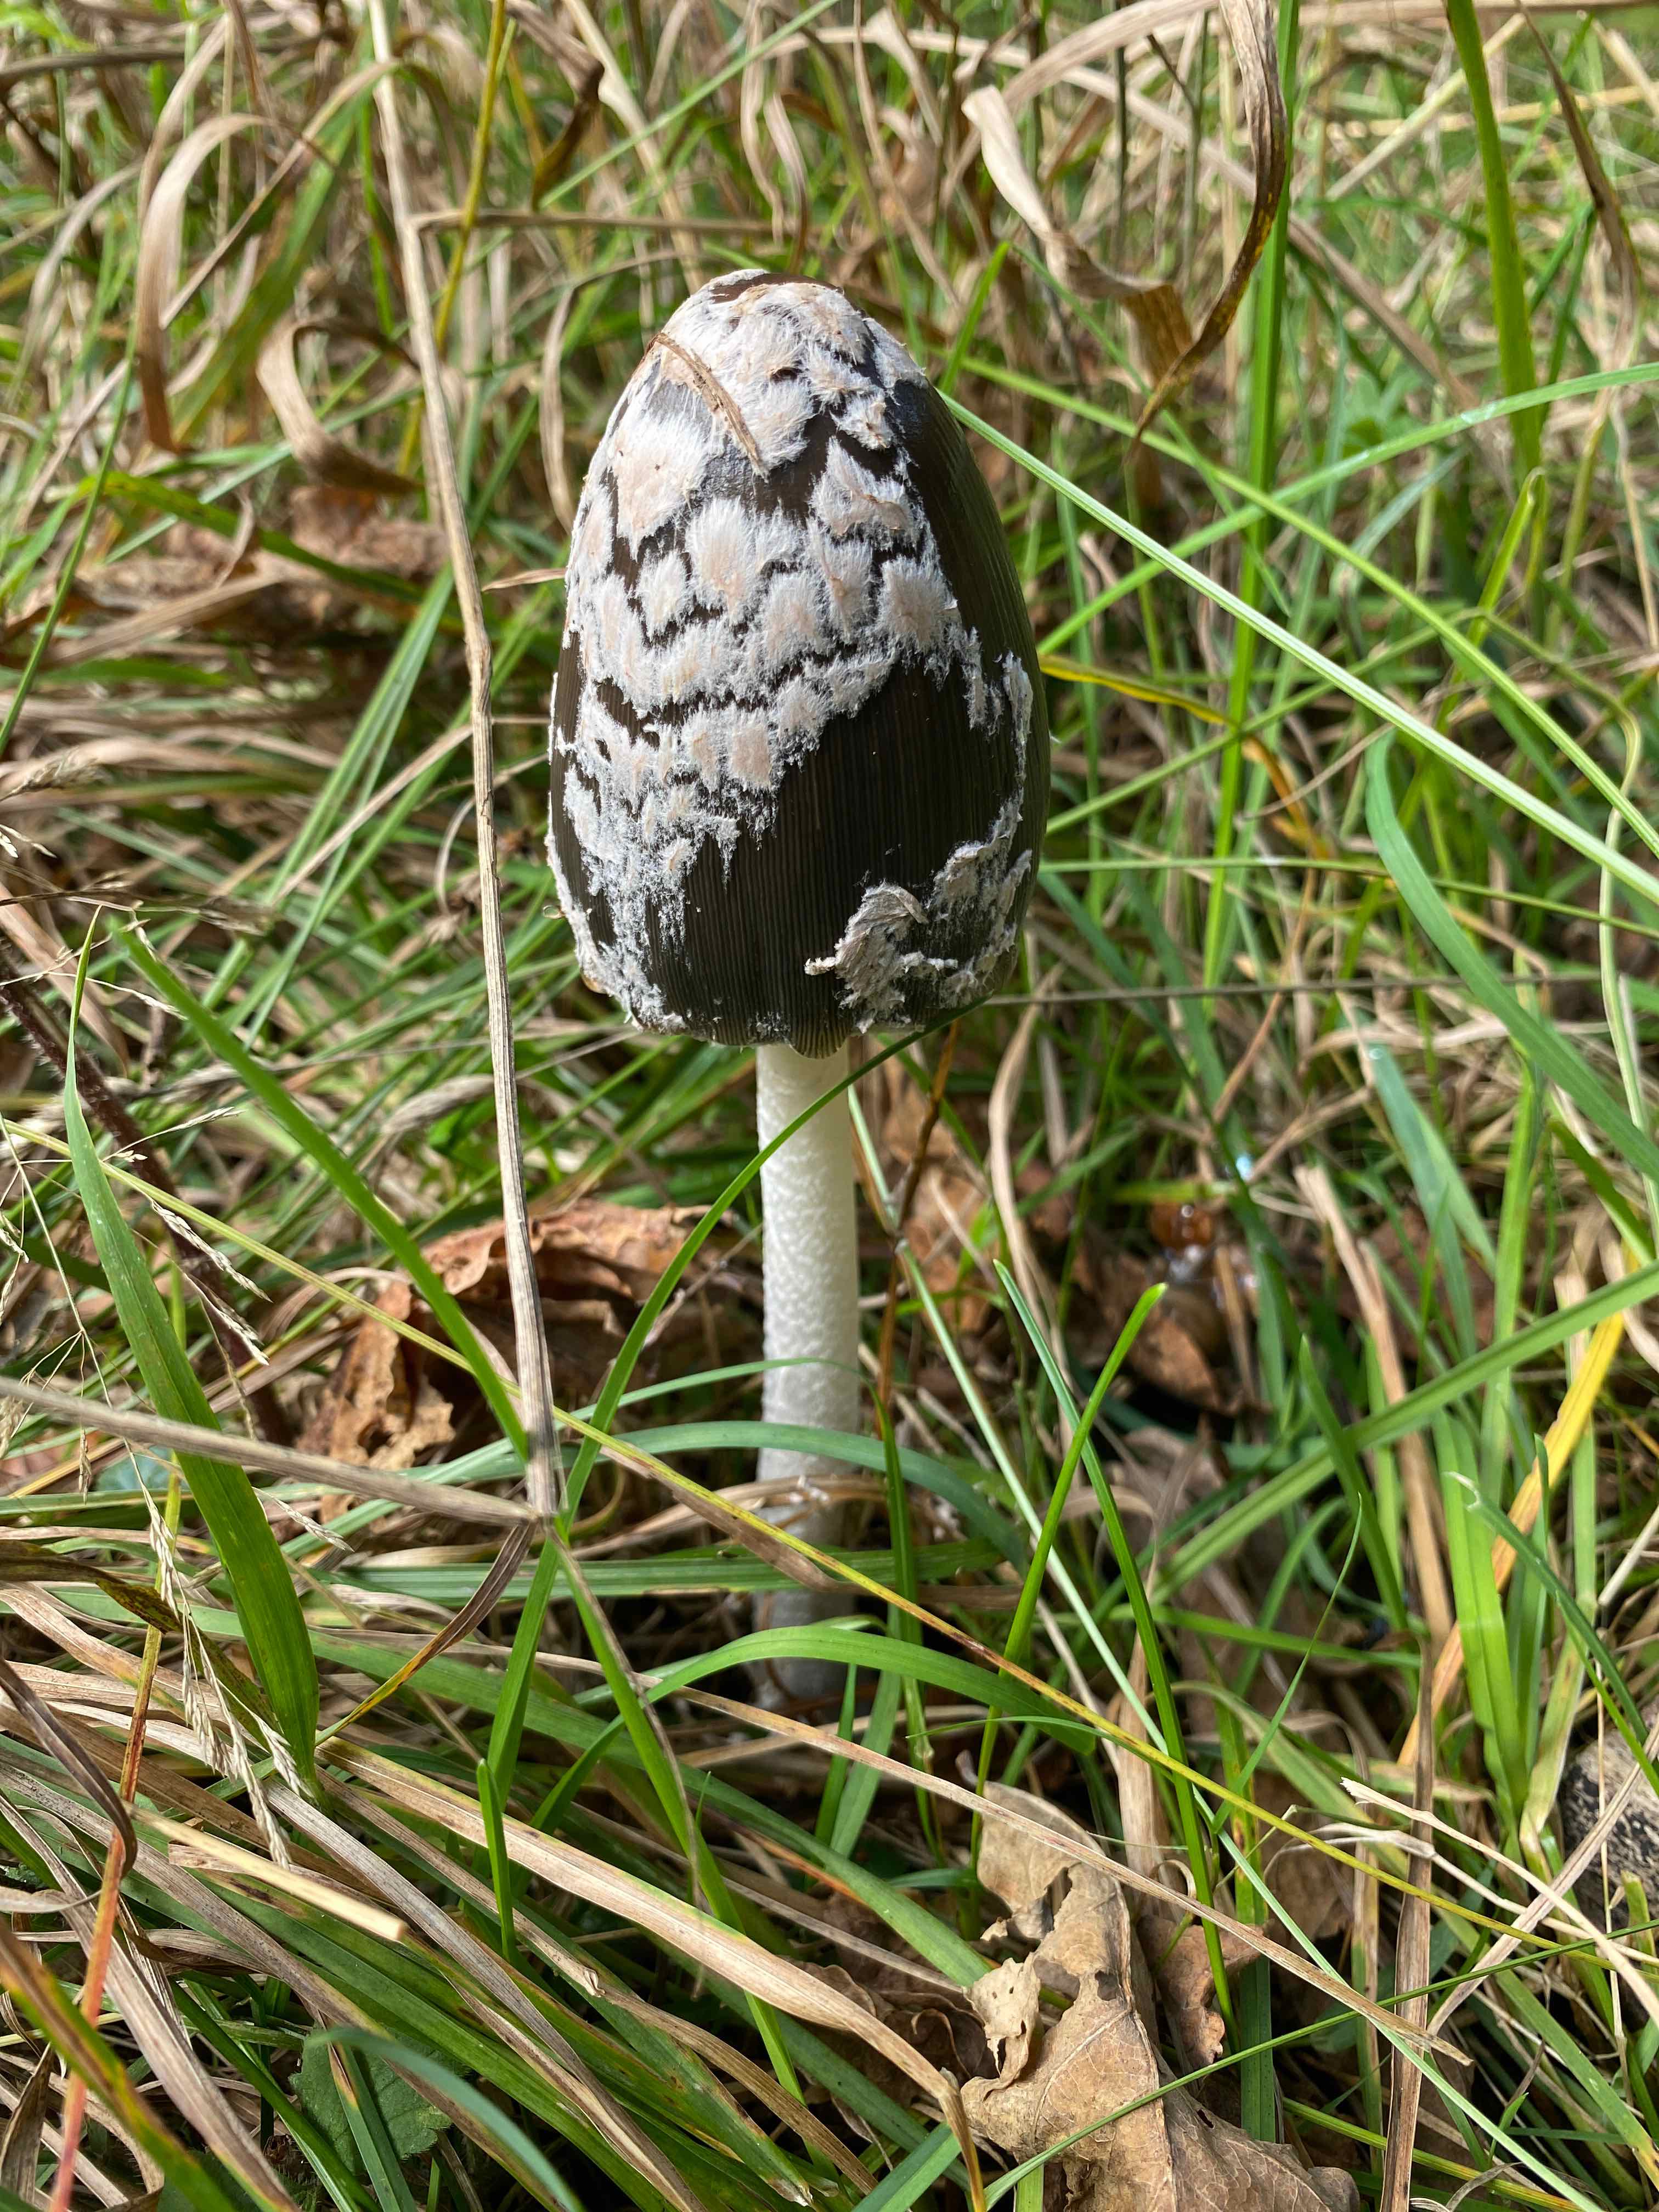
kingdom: Fungi
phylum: Basidiomycota
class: Agaricomycetes
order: Agaricales
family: Psathyrellaceae
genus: Coprinopsis
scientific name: Coprinopsis picacea
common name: skade-blækhat
